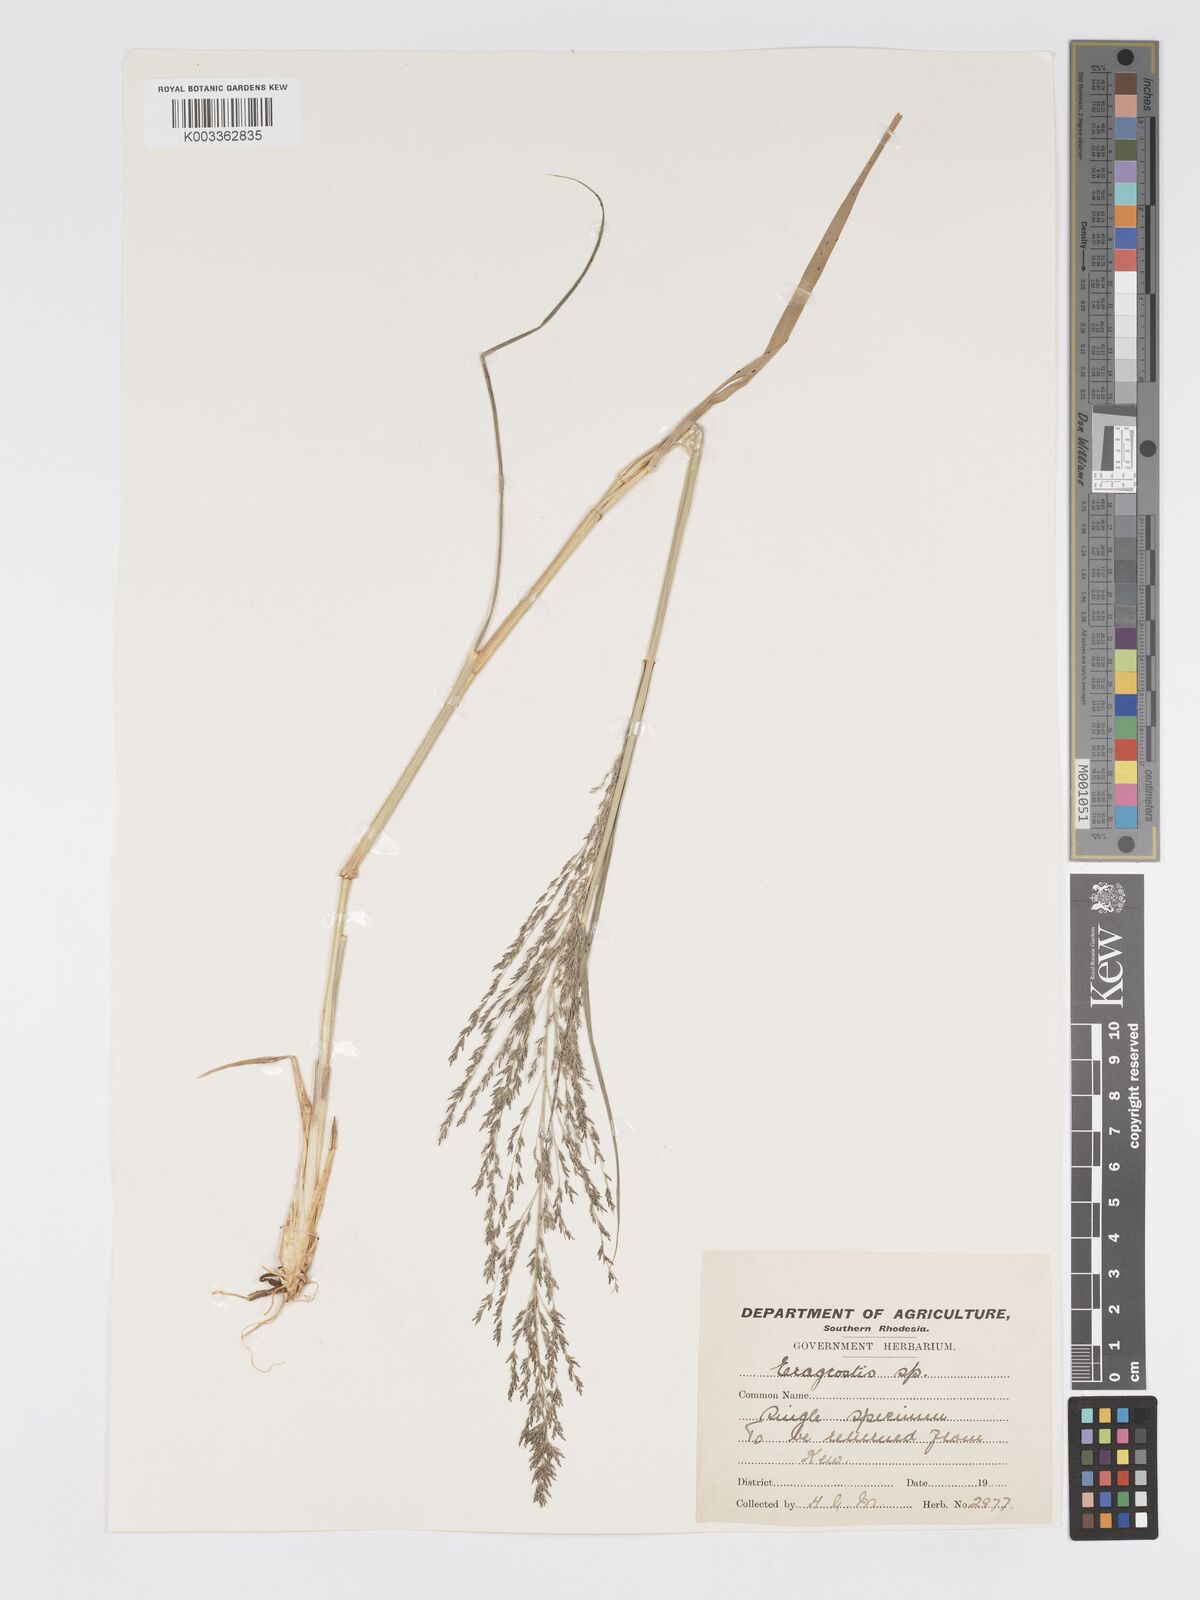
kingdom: Plantae
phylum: Tracheophyta
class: Liliopsida
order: Poales
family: Poaceae
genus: Eragrostis
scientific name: Eragrostis cylindriflora
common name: Cylinderflower lovegrass
